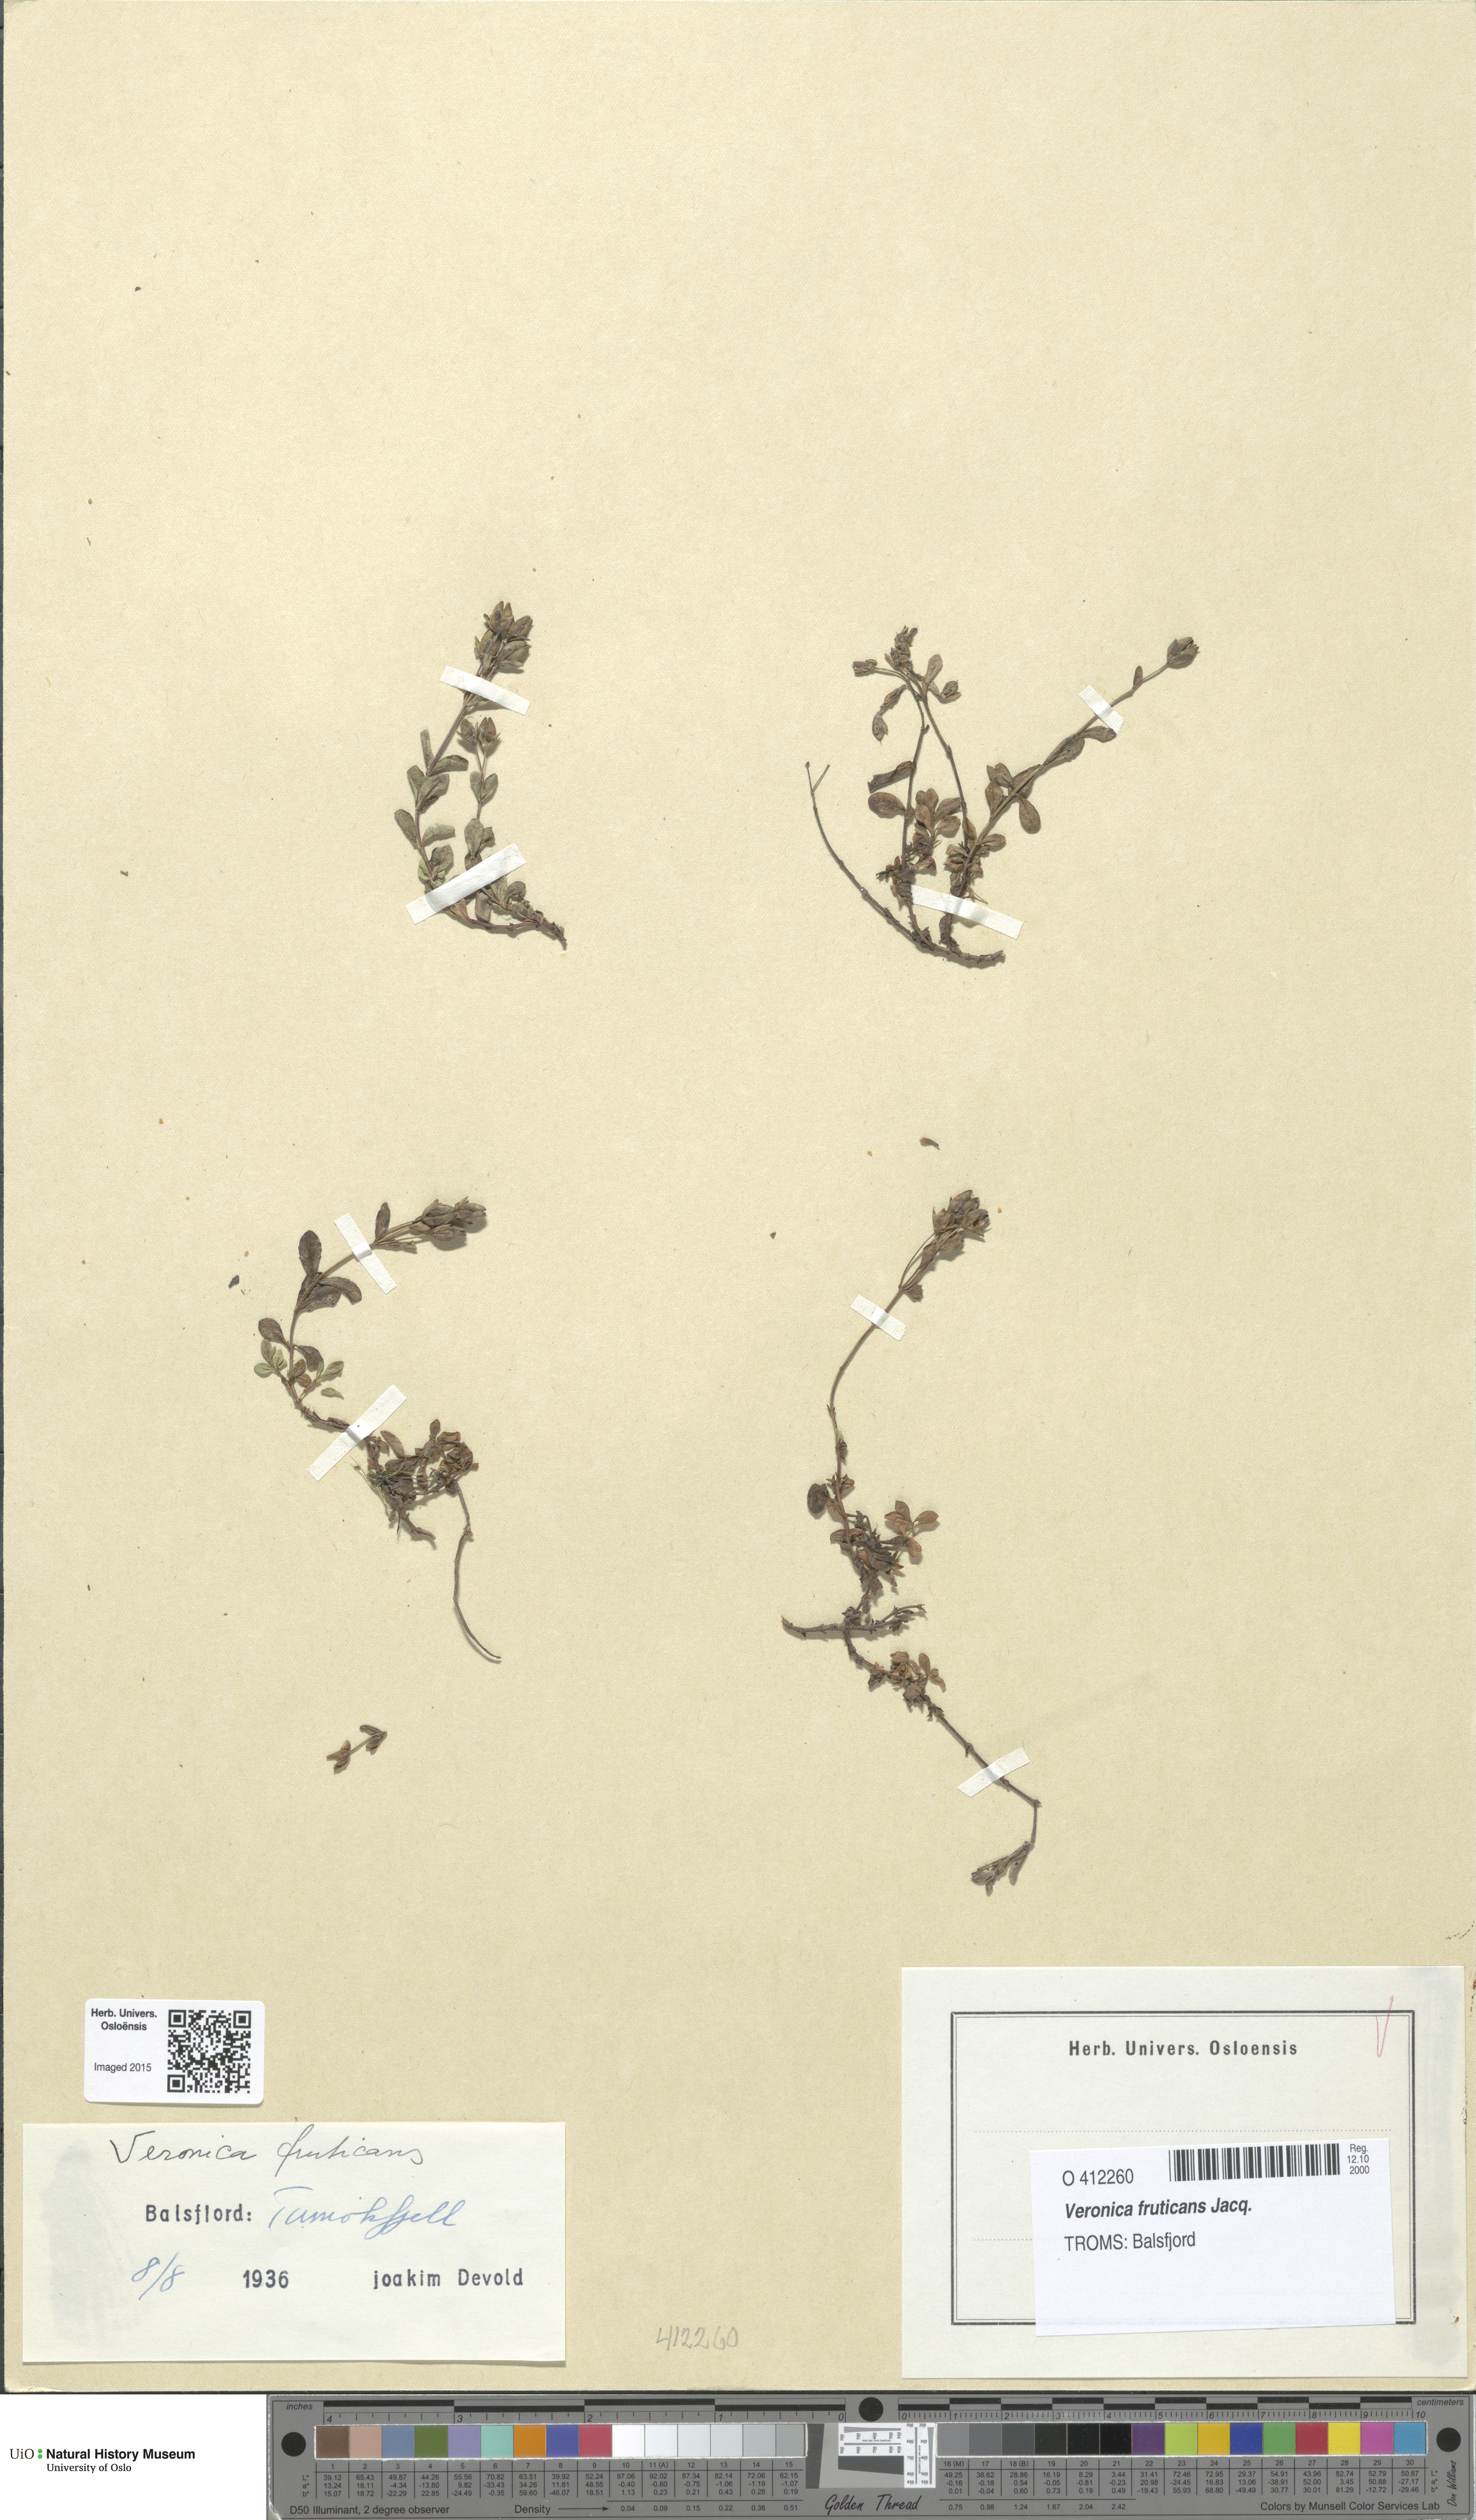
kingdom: Plantae
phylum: Tracheophyta
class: Magnoliopsida
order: Lamiales
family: Plantaginaceae
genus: Veronica
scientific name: Veronica fruticans
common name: Rock speedwell
